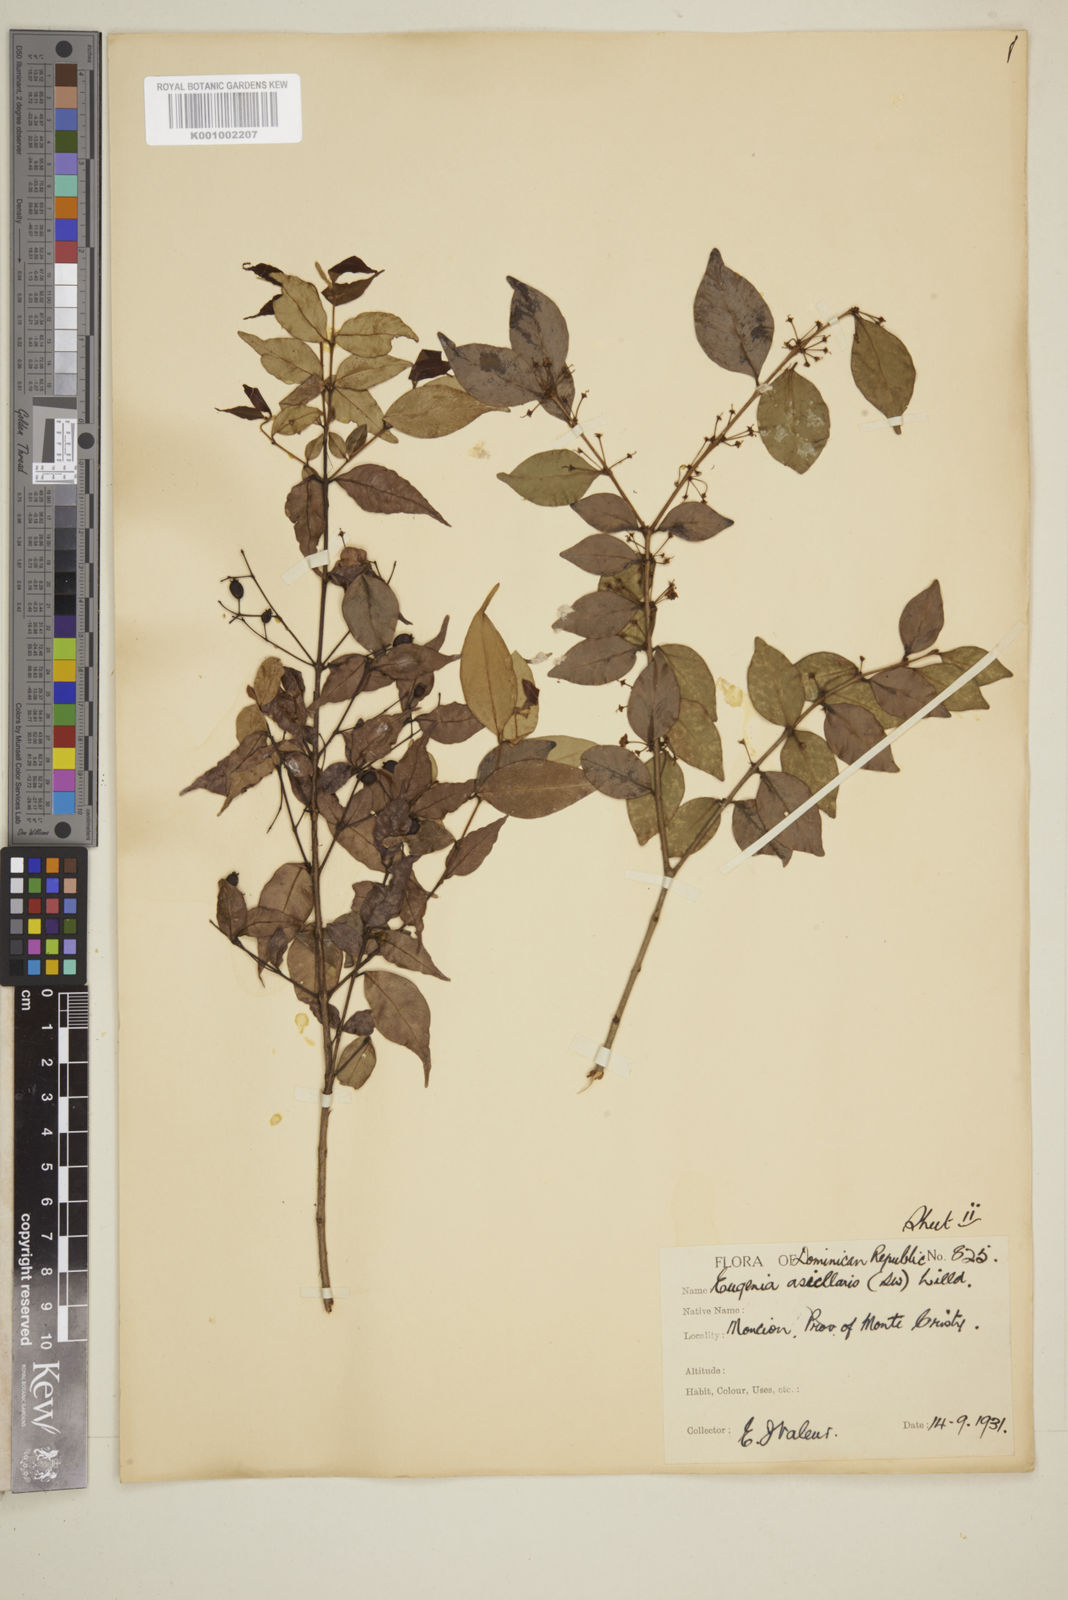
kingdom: Plantae
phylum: Tracheophyta
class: Magnoliopsida
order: Myrtales
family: Myrtaceae
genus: Eugenia
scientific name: Eugenia axillaris
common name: Choaky berry
